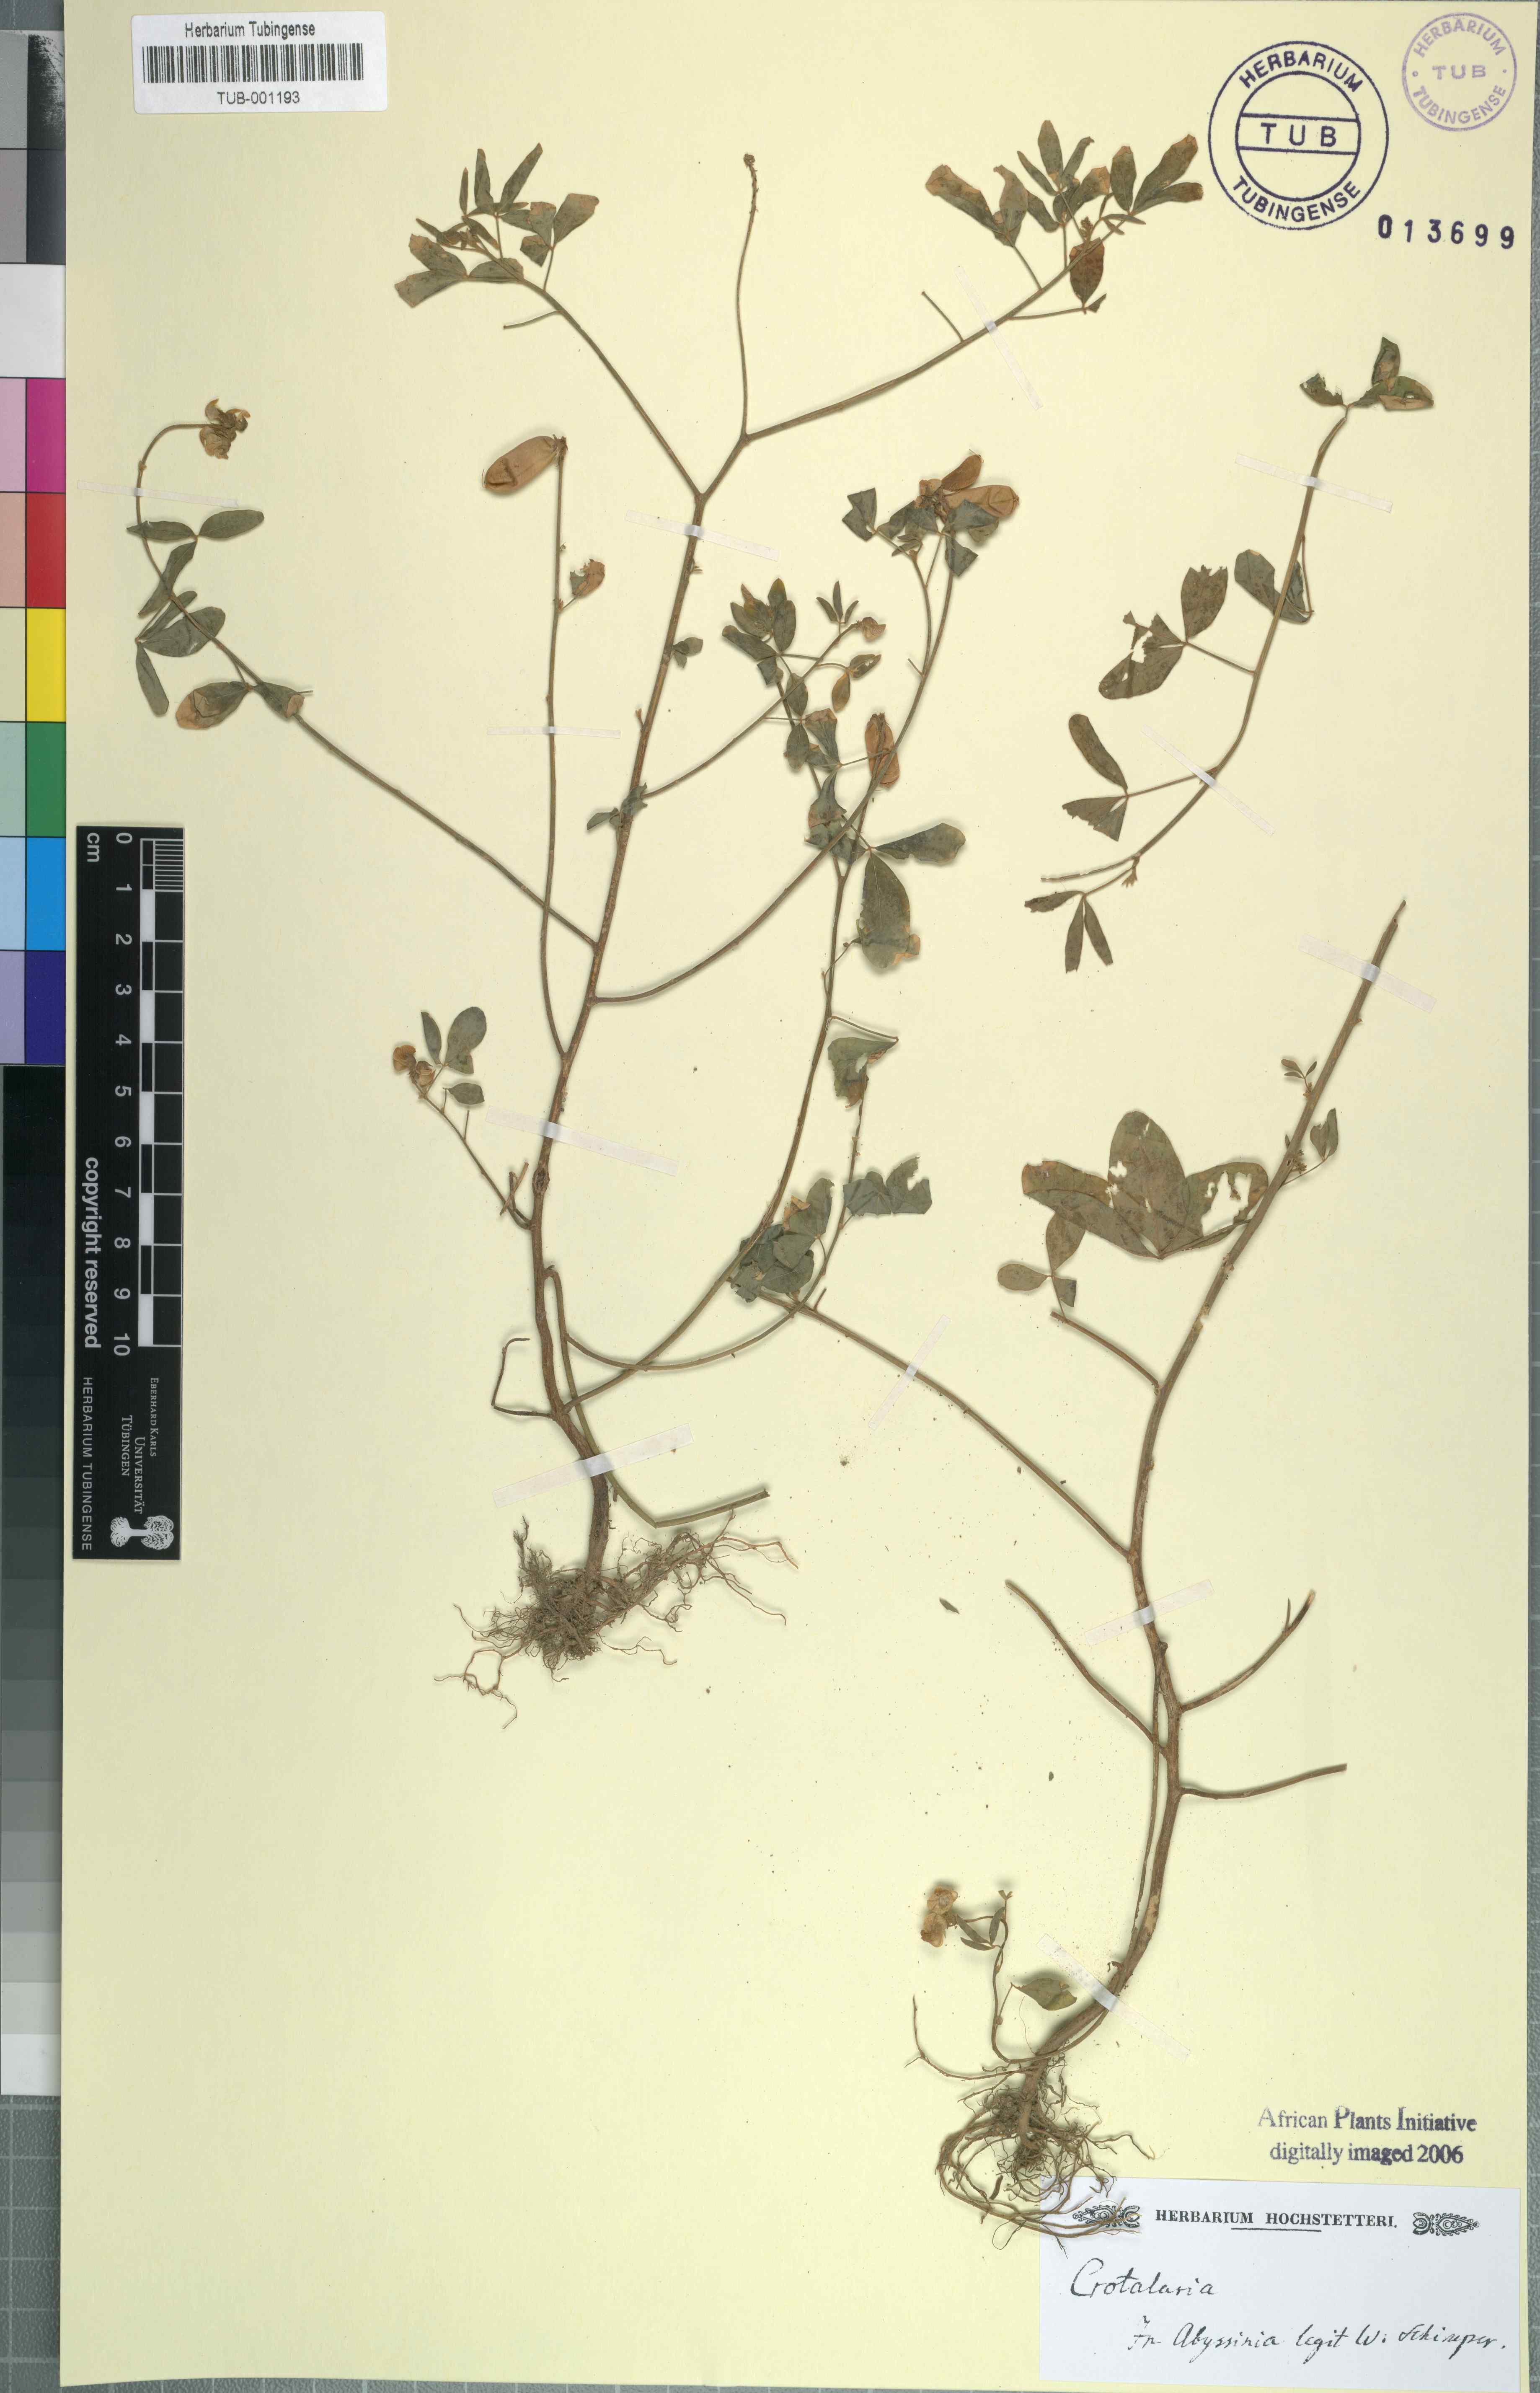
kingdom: Plantae
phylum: Tracheophyta
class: Magnoliopsida
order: Fabales
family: Fabaceae
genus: Crotalaria
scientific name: Crotalaria
